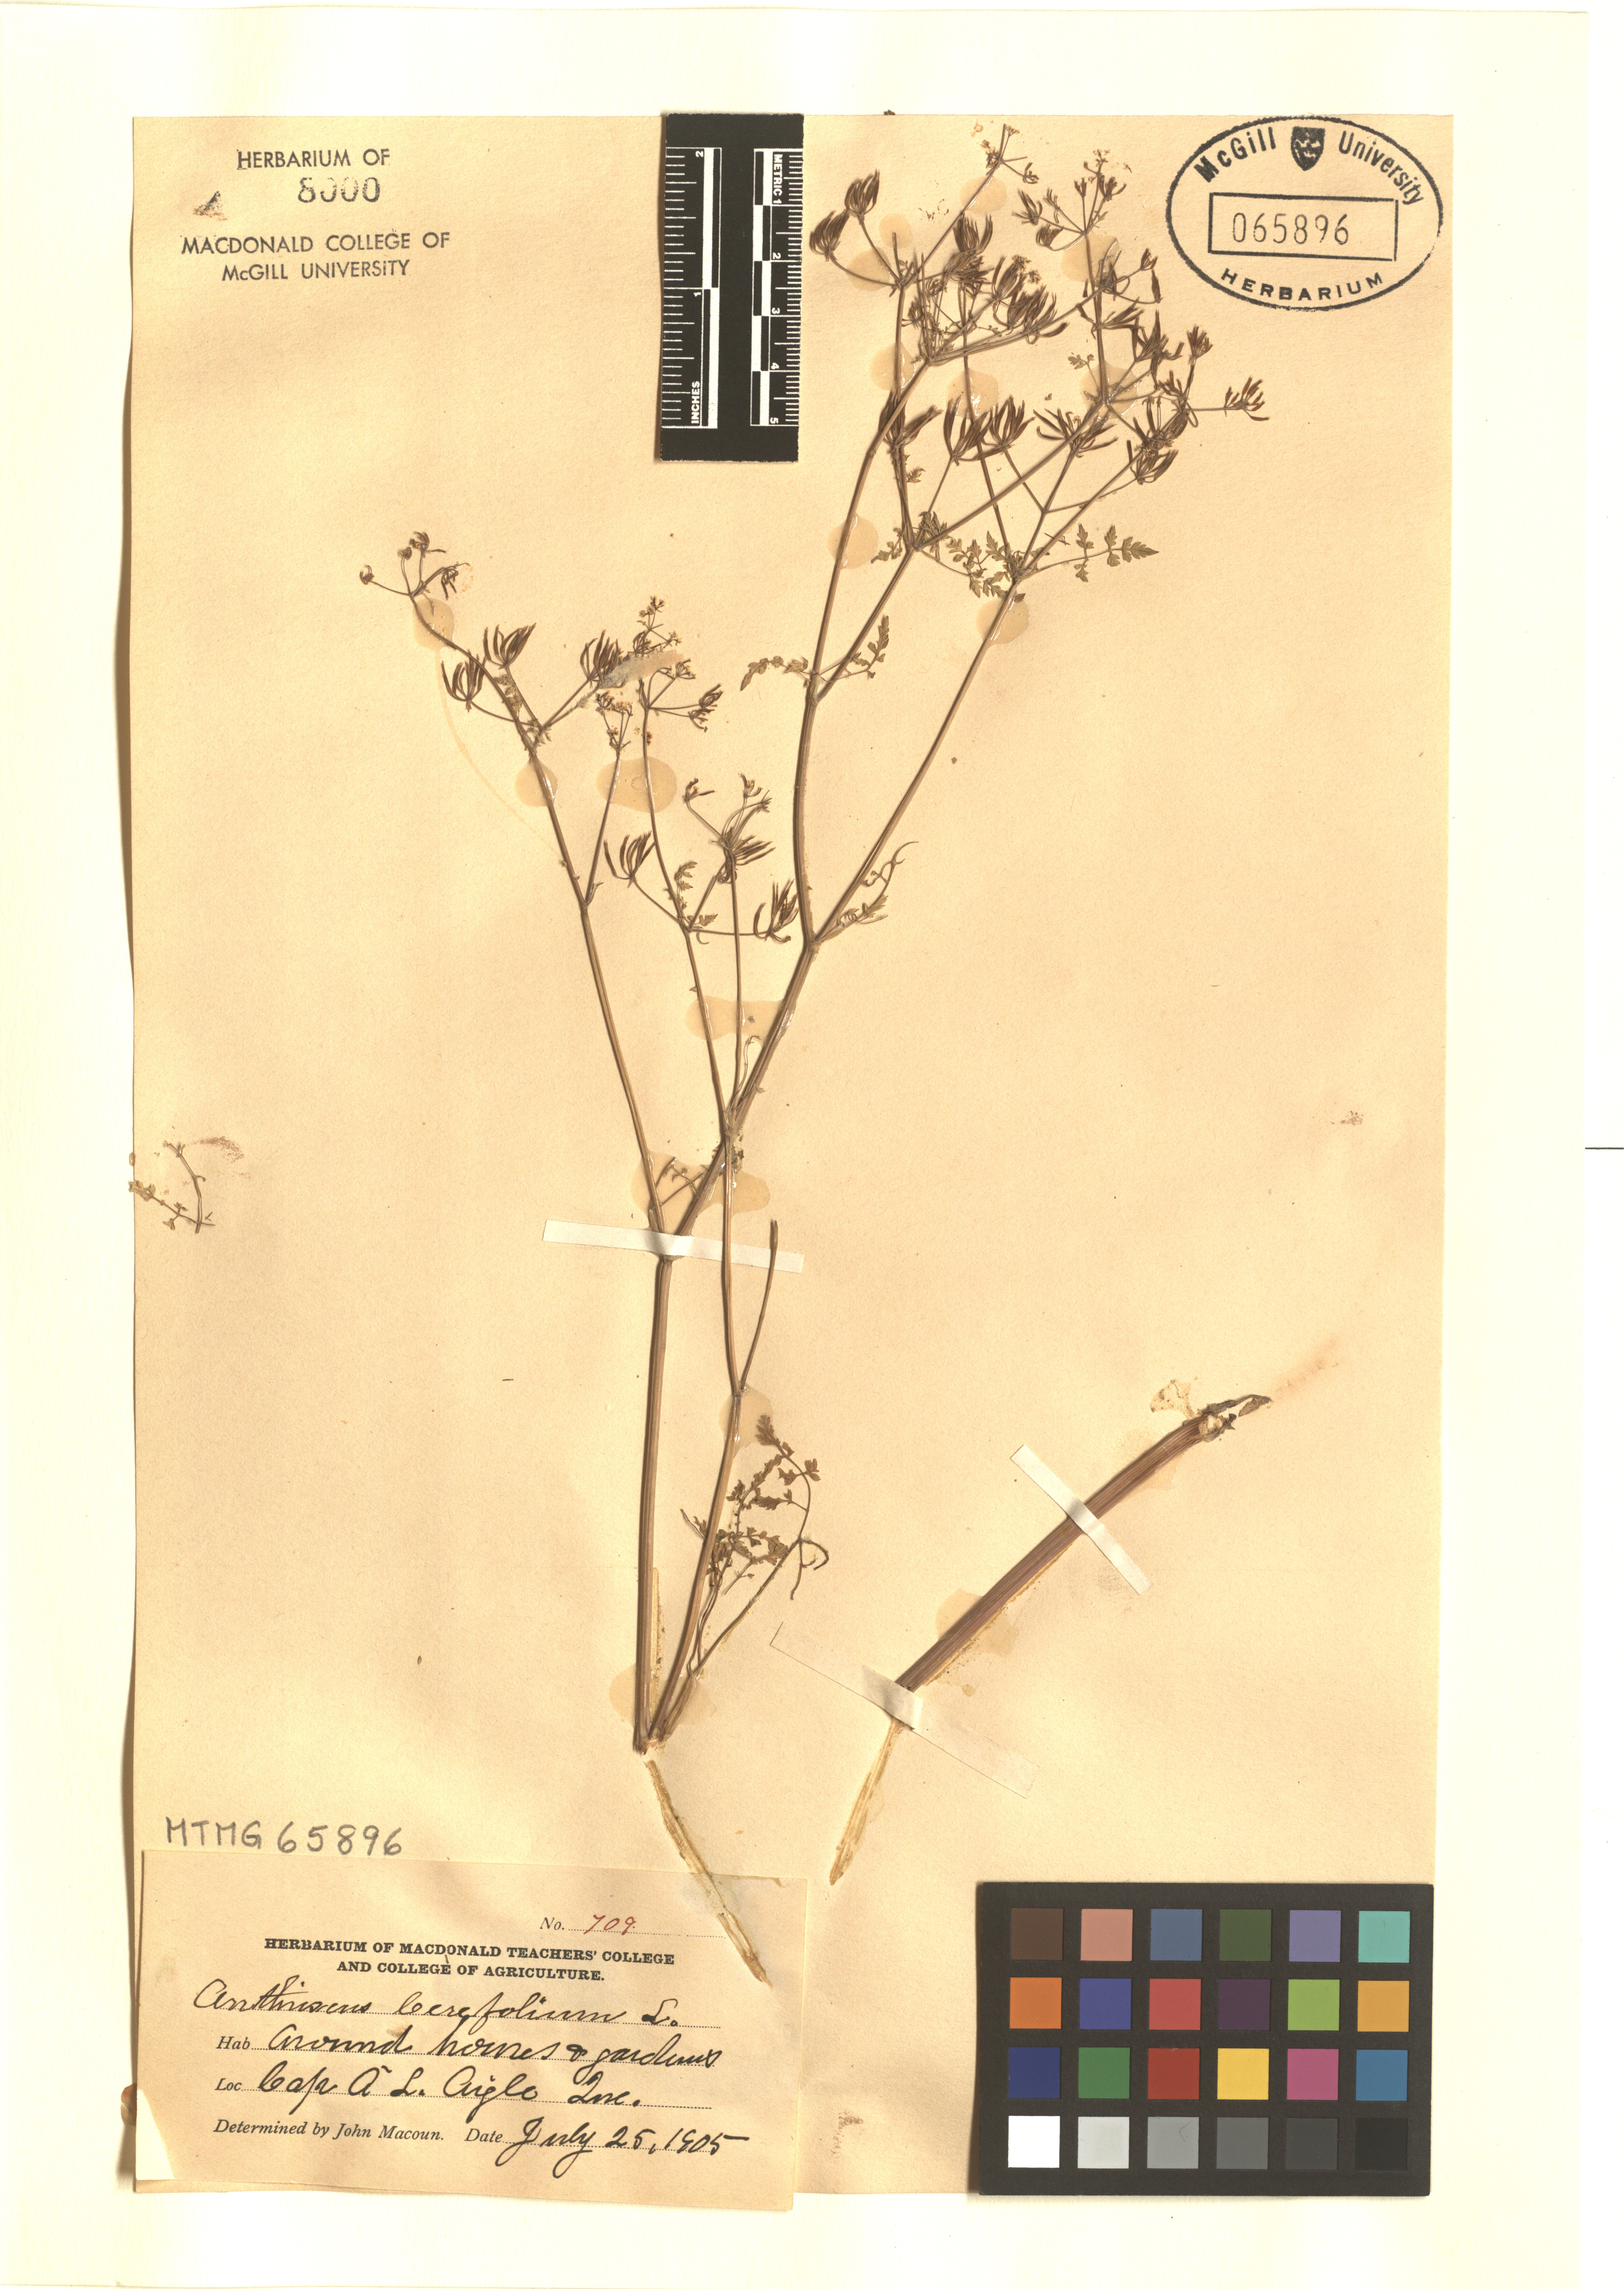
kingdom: Plantae
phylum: Tracheophyta
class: Magnoliopsida
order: Apiales
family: Apiaceae
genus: Anthriscus
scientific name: Anthriscus cerefolium
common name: Garden chervil
